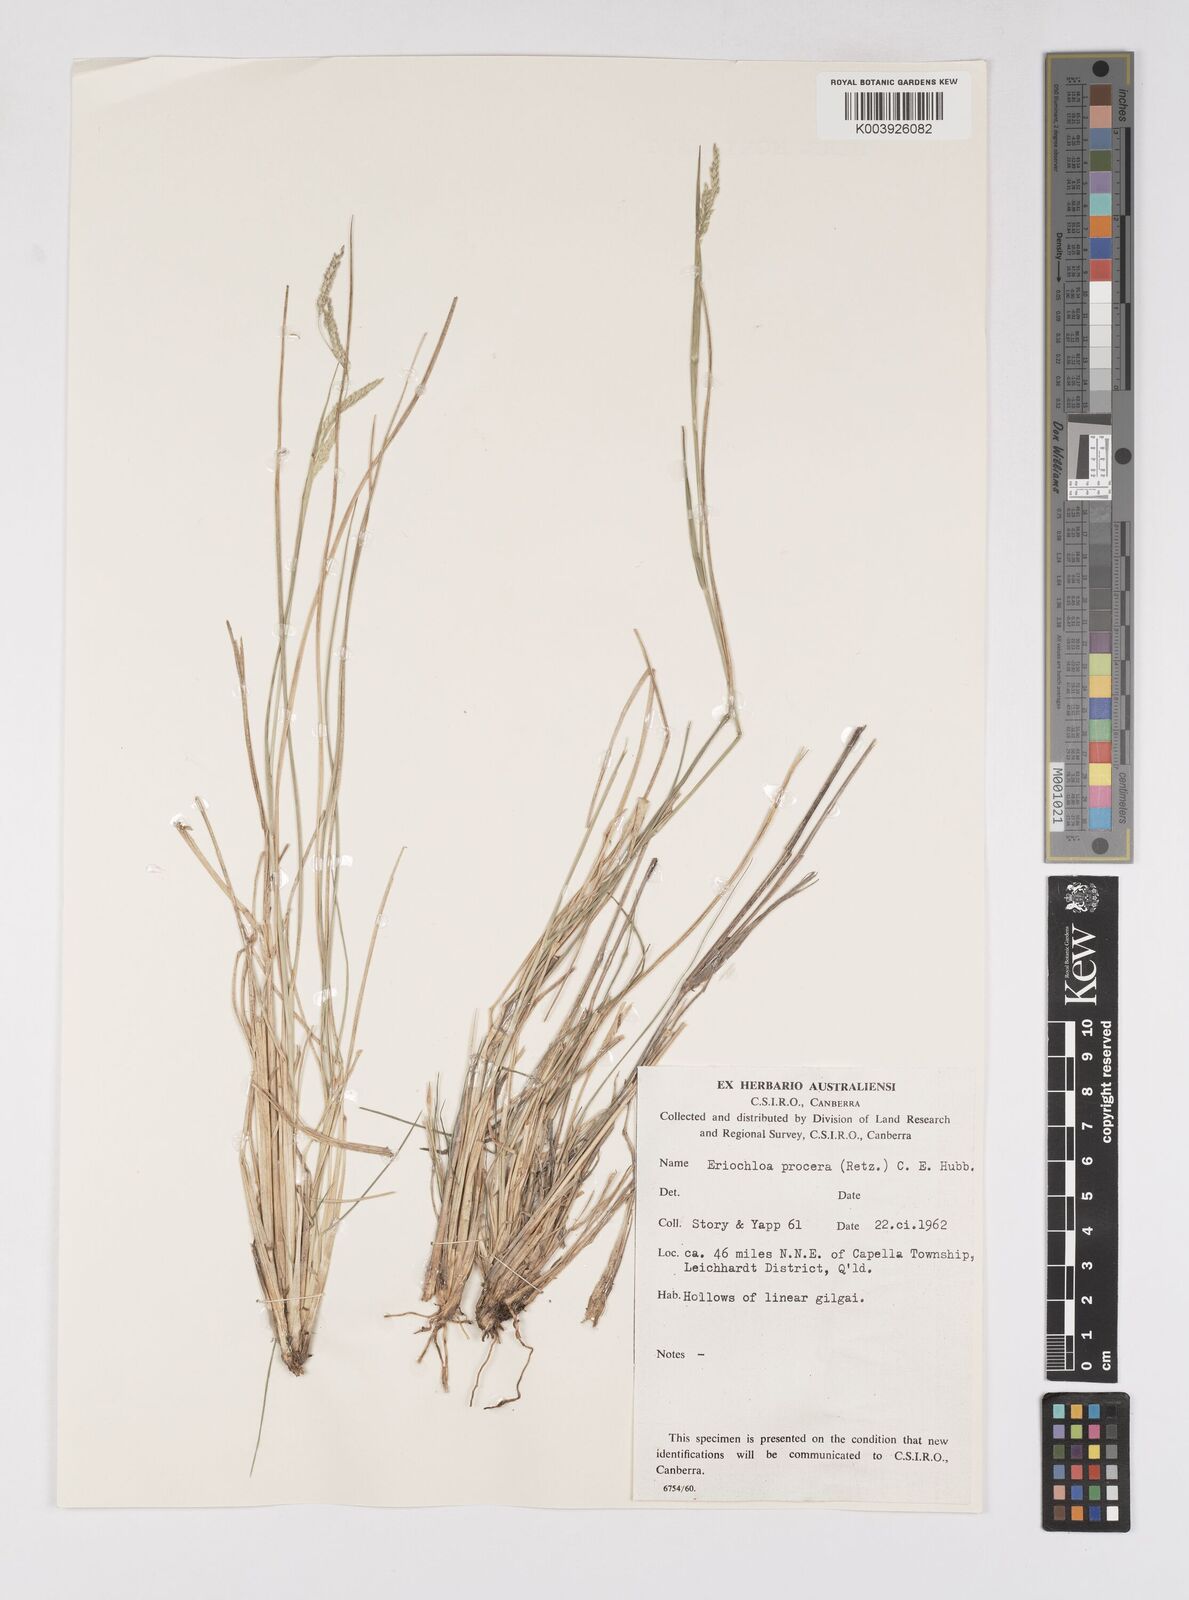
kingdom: Plantae
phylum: Tracheophyta
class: Liliopsida
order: Poales
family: Poaceae
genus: Eriochloa
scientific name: Eriochloa
